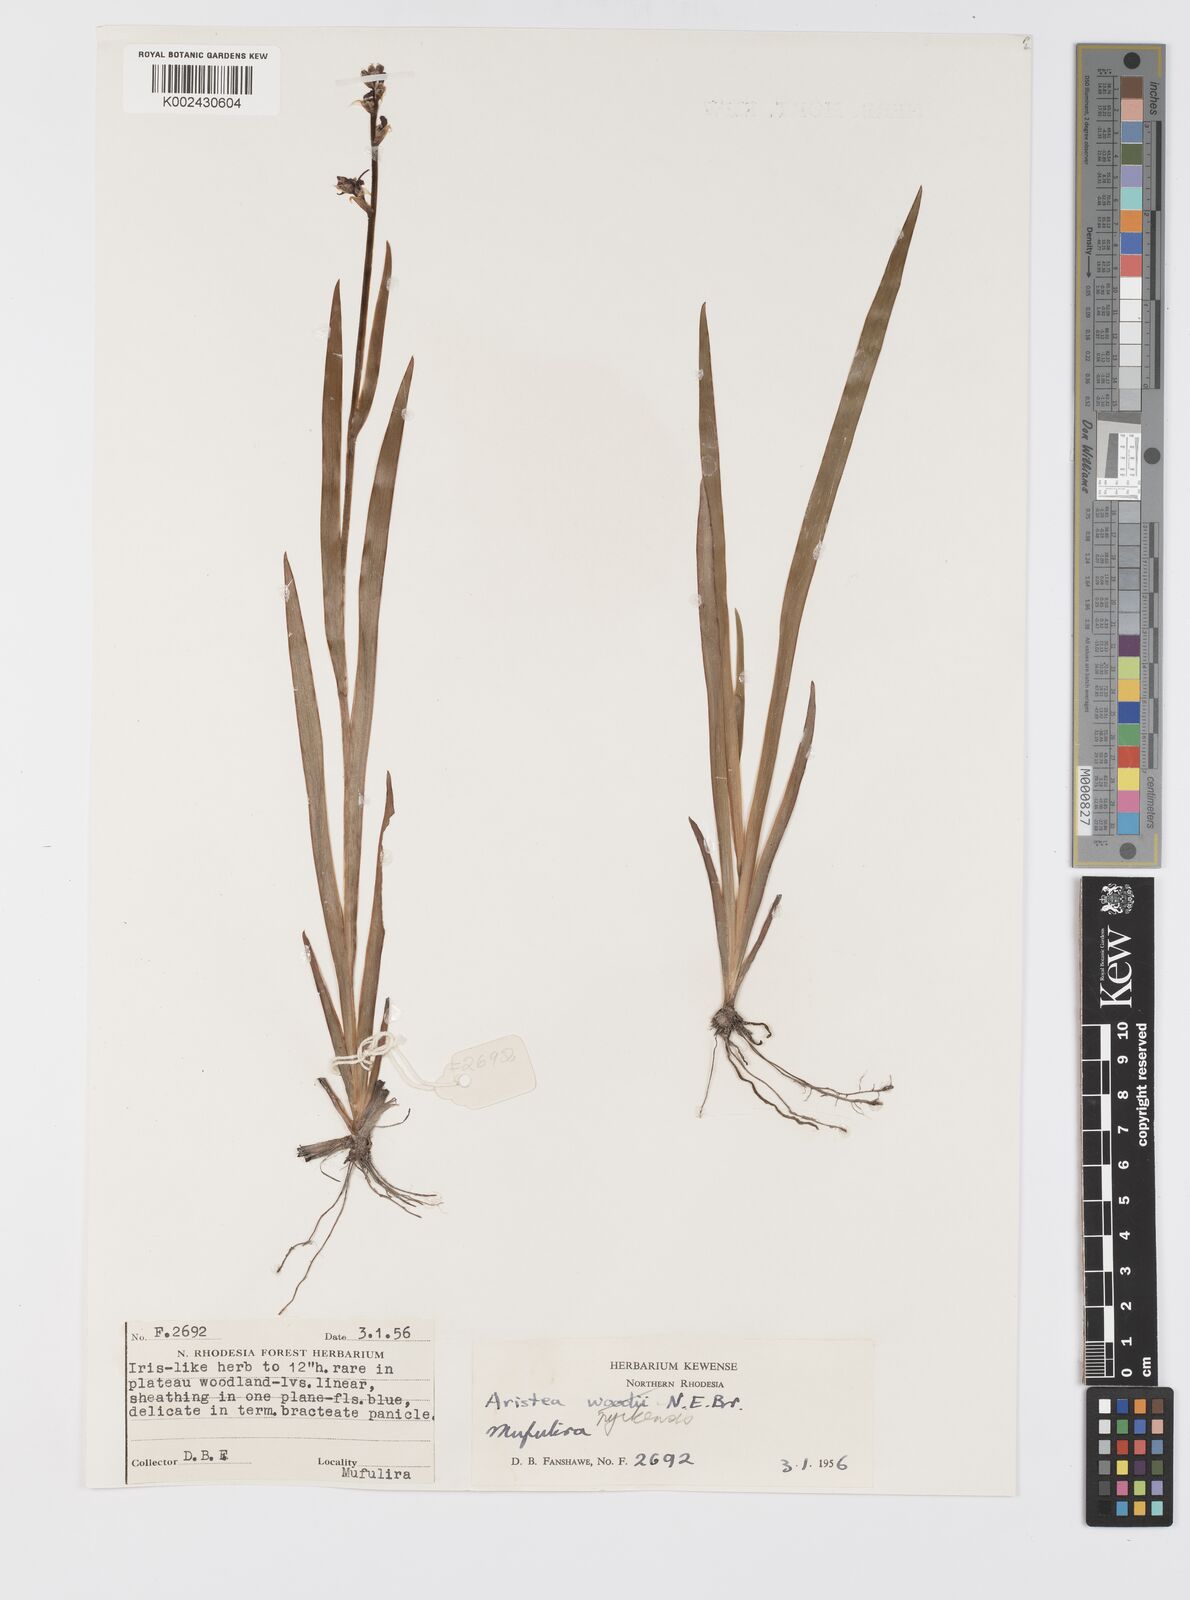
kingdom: Plantae
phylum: Tracheophyta
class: Liliopsida
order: Asparagales
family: Iridaceae
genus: Aristea
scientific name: Aristea nyikensis
